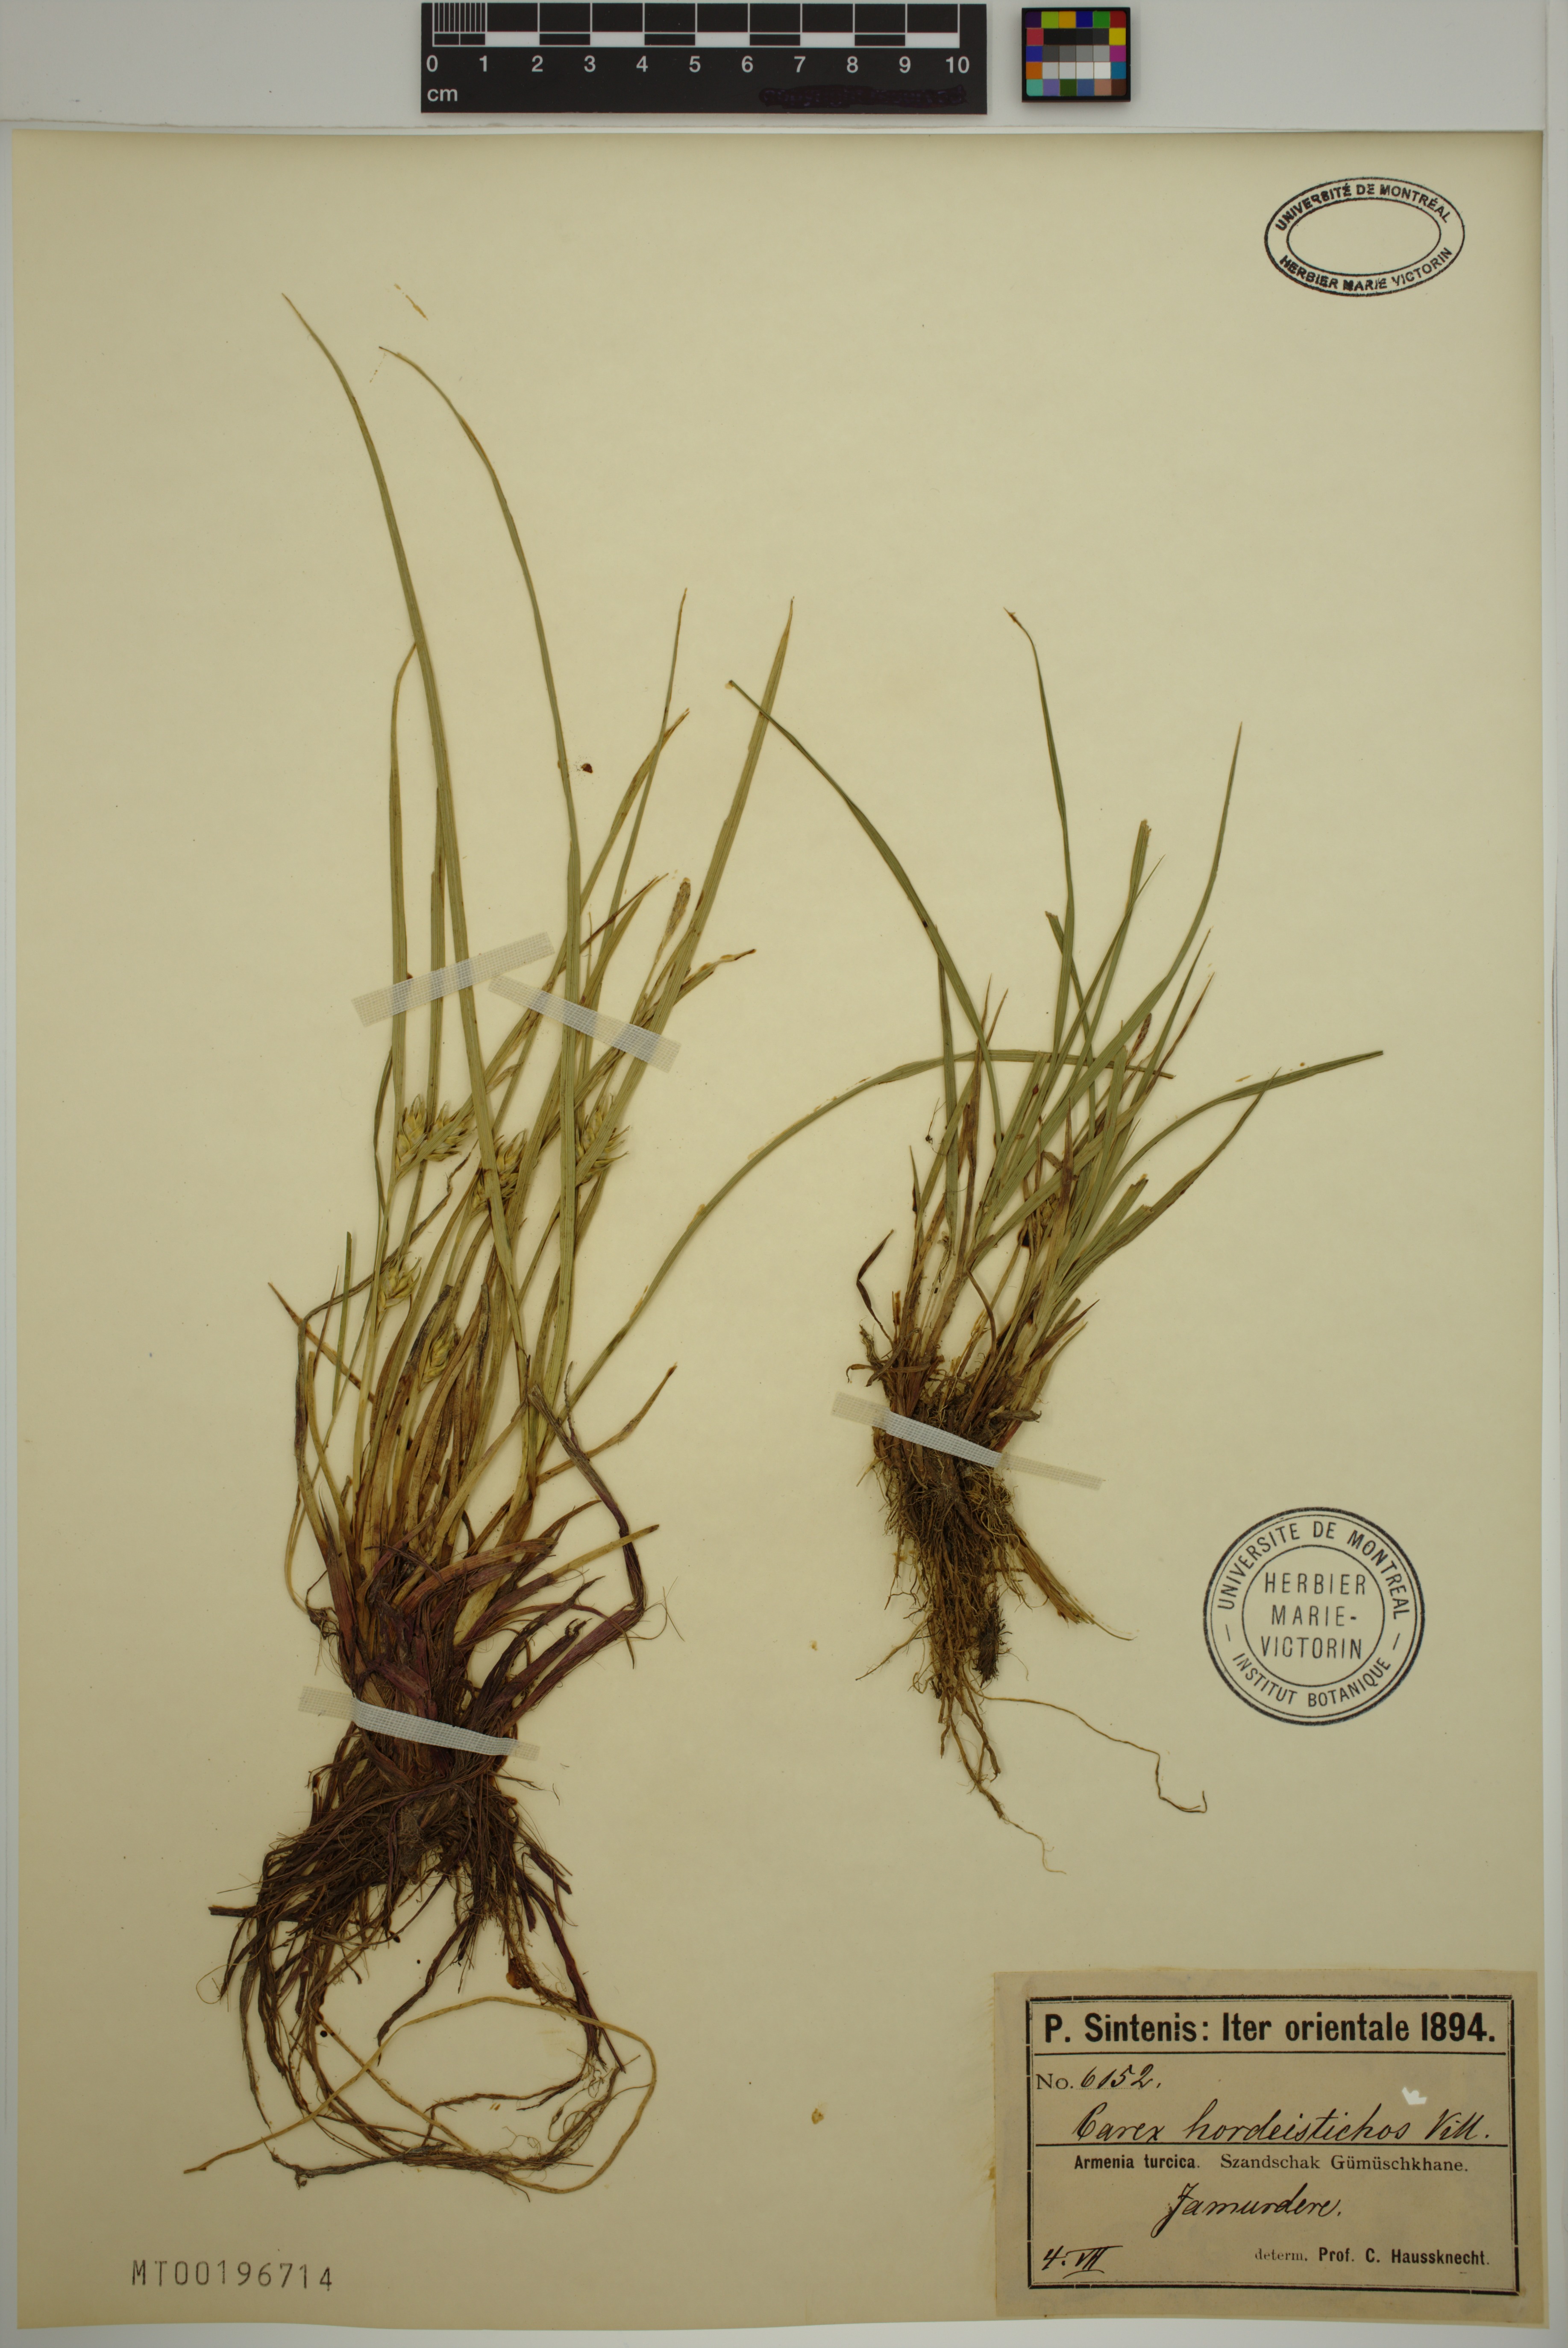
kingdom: Plantae
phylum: Tracheophyta
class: Liliopsida
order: Poales
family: Cyperaceae
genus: Carex
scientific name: Carex hordeistichos
